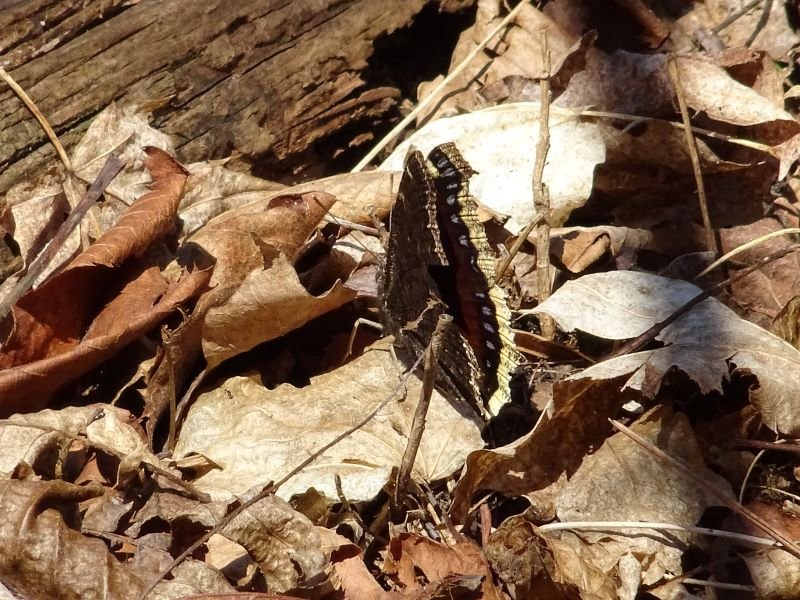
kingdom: Animalia
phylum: Arthropoda
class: Insecta
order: Lepidoptera
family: Nymphalidae
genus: Nymphalis
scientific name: Nymphalis antiopa
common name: Mourning Cloak
